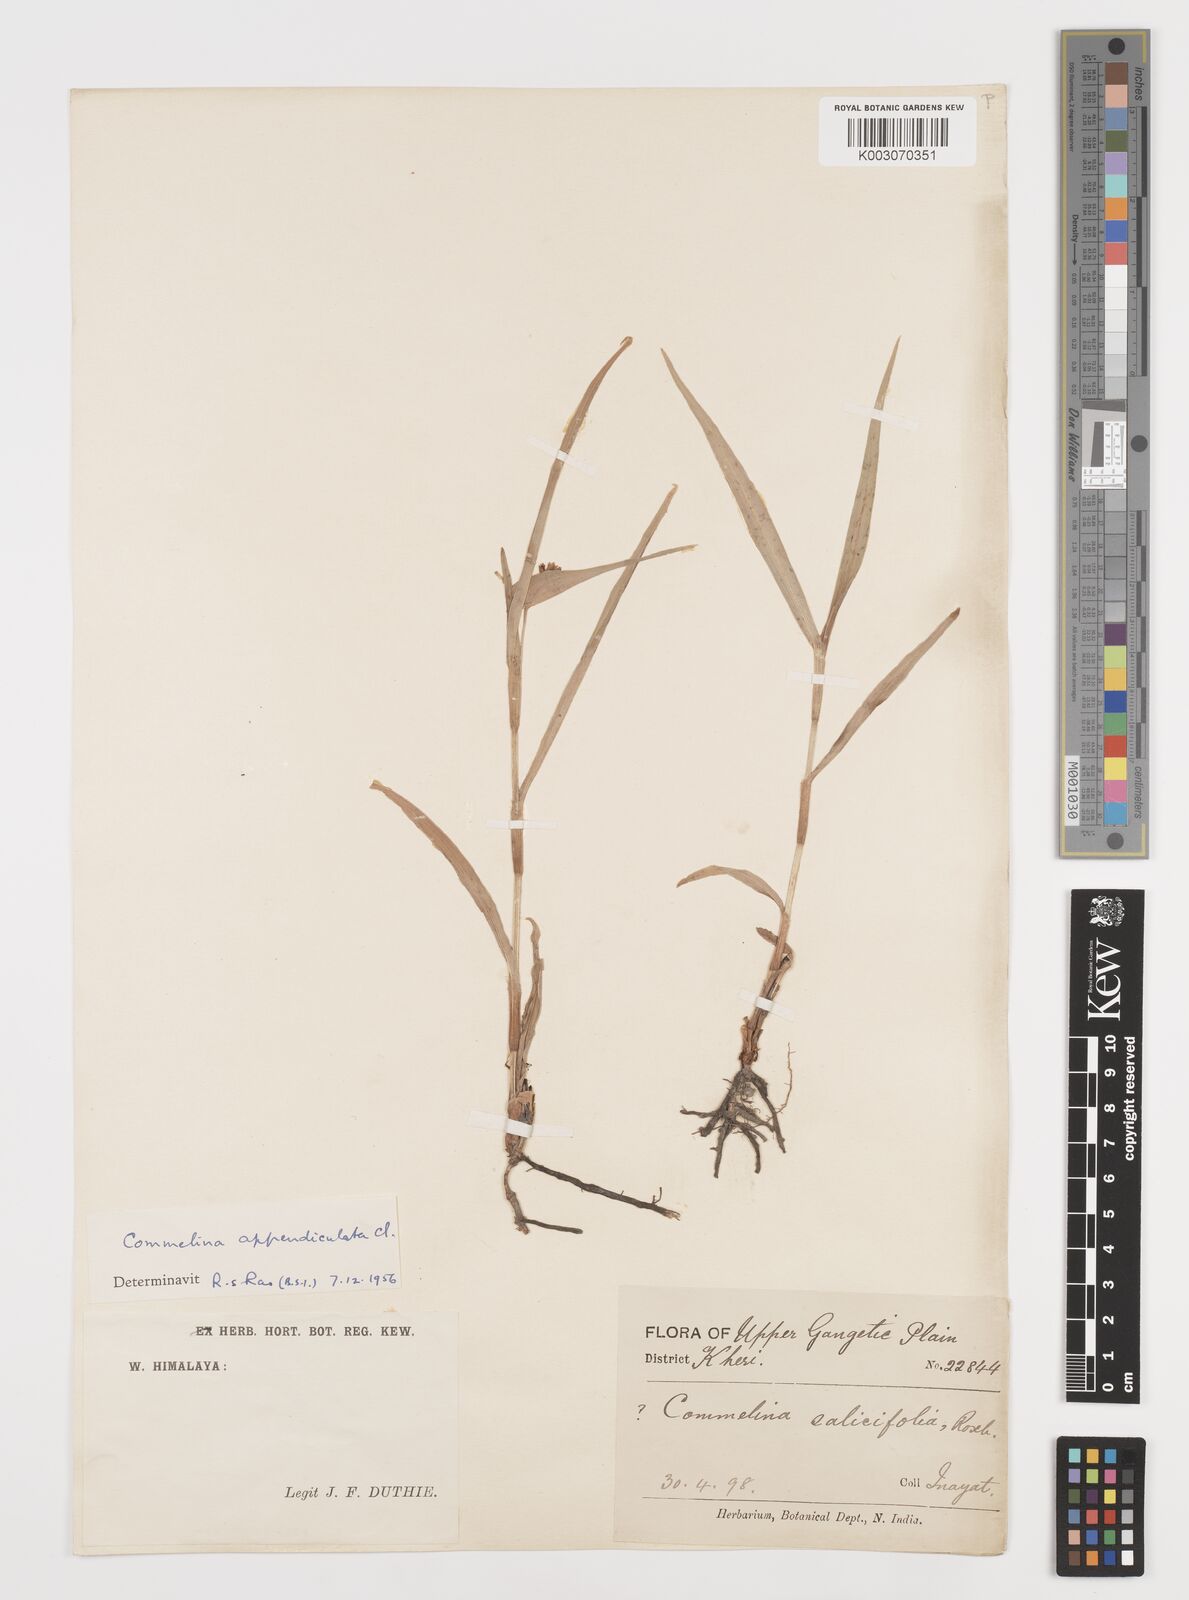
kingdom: Plantae
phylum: Tracheophyta
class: Liliopsida
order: Commelinales
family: Commelinaceae
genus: Commelina
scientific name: Commelina appendiculata
